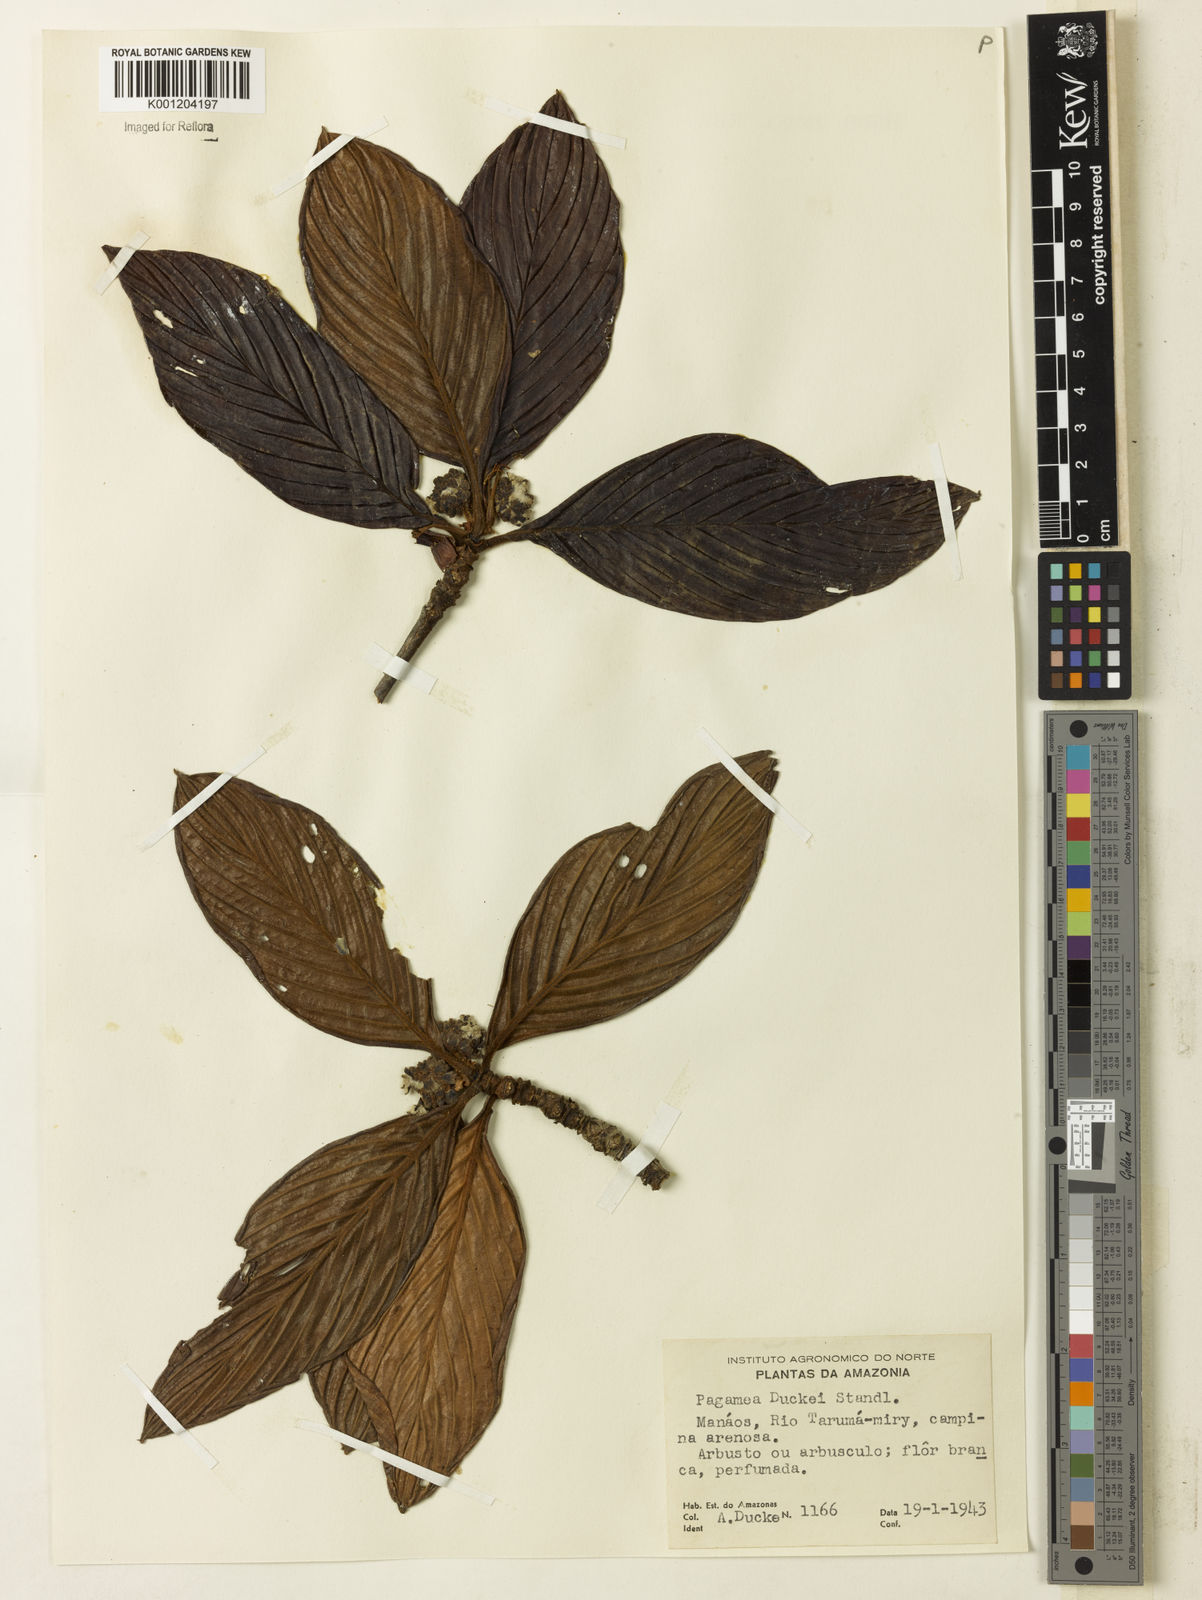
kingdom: Plantae
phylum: Tracheophyta
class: Magnoliopsida
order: Gentianales
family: Rubiaceae
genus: Pagamea
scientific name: Pagamea duckei
